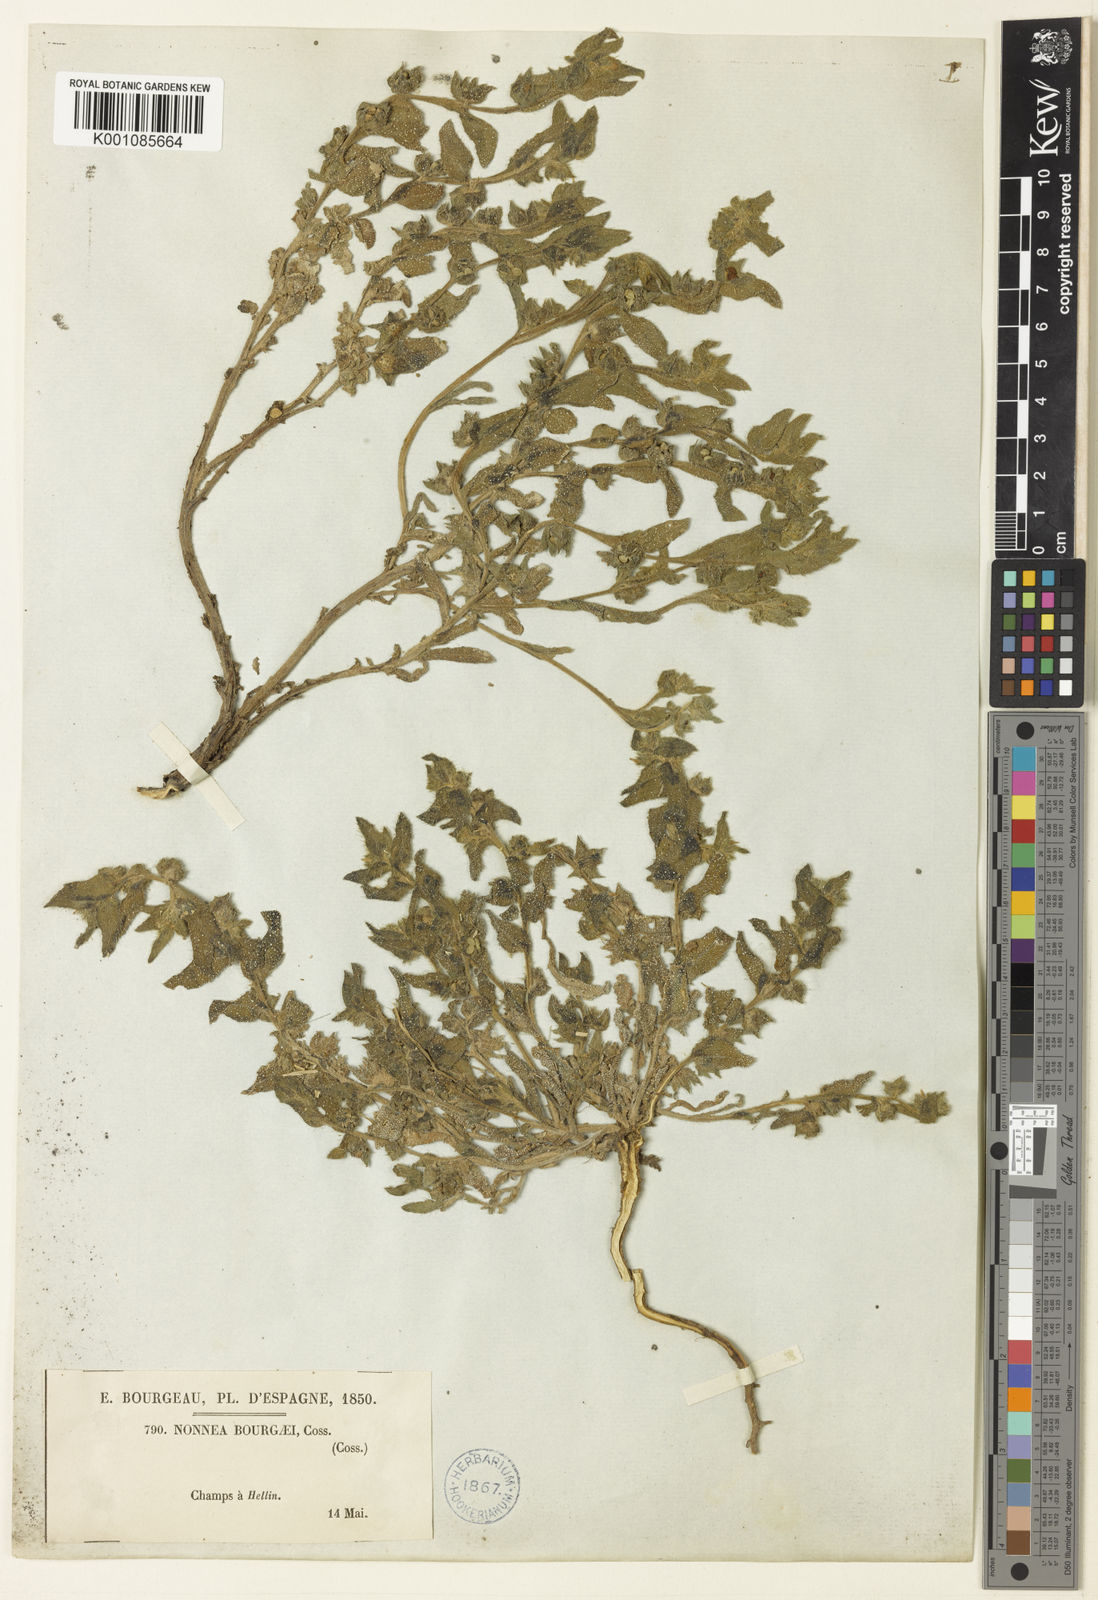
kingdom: Plantae
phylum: Tracheophyta
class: Magnoliopsida
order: Boraginales
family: Boraginaceae
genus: Nonea
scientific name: Nonea micrantha
